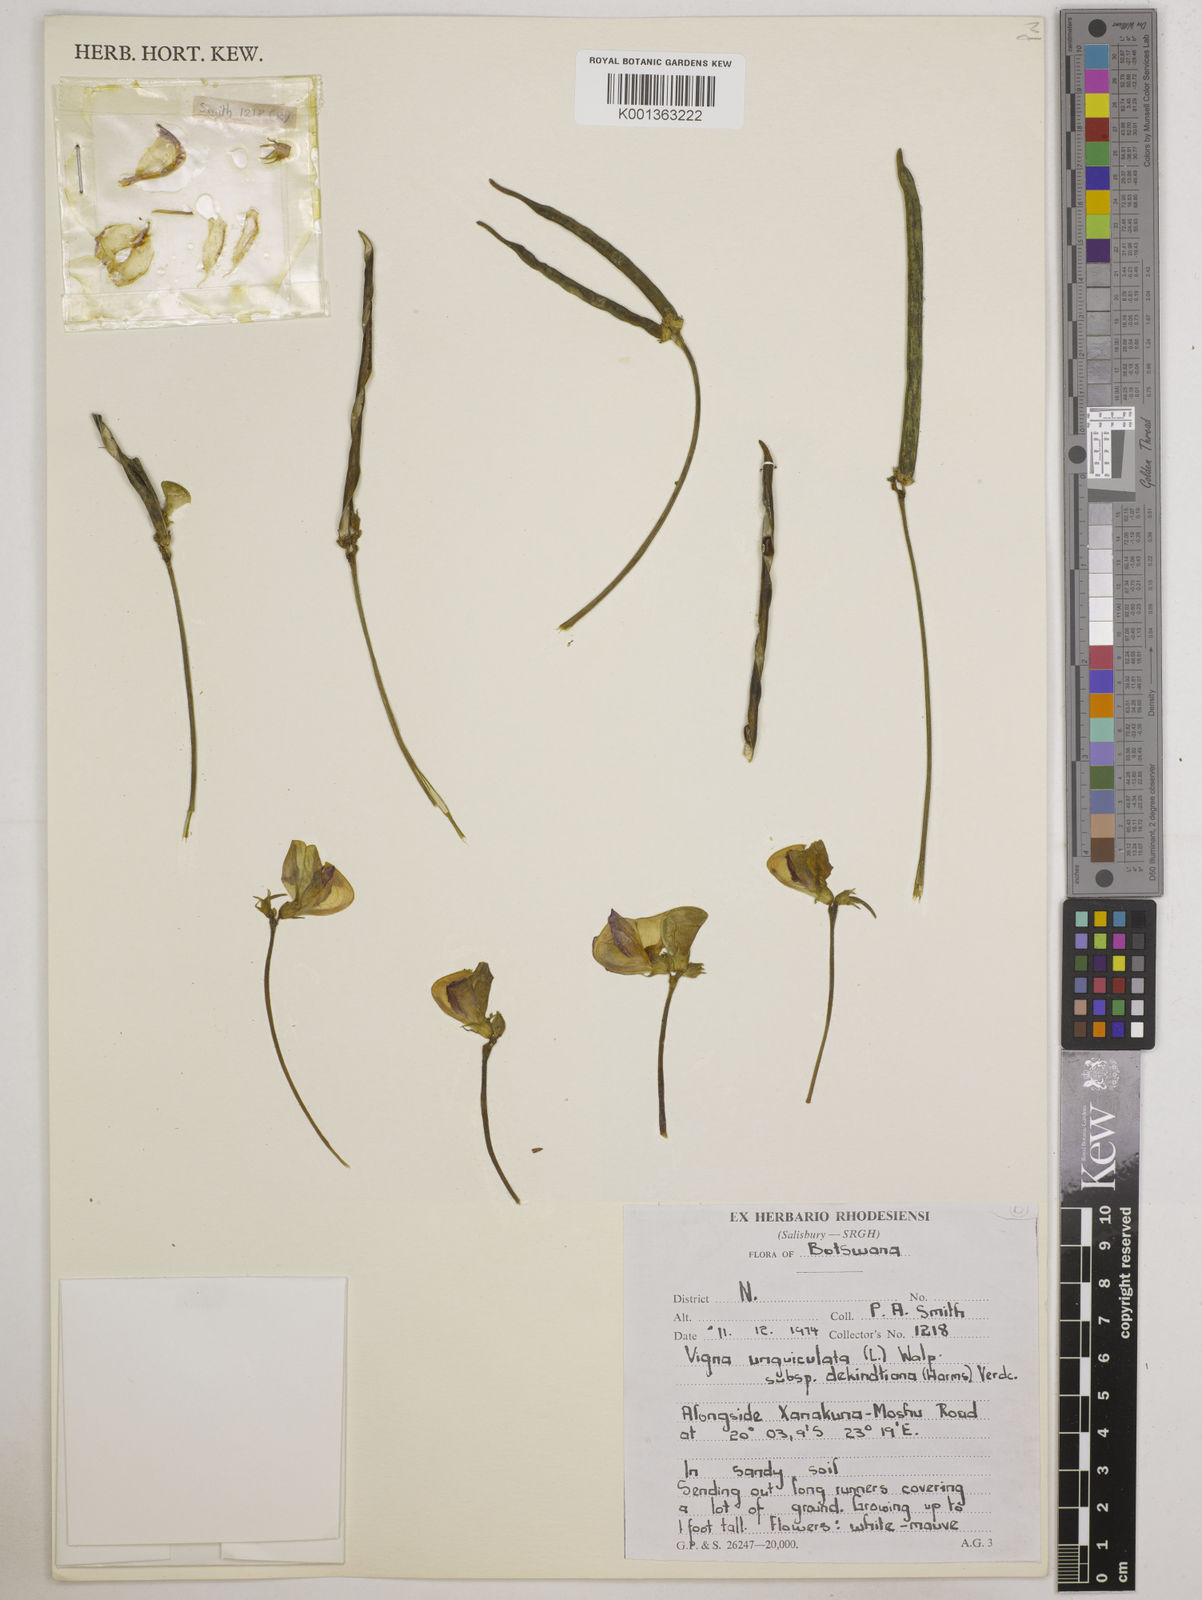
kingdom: Plantae
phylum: Tracheophyta
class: Magnoliopsida
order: Fabales
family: Fabaceae
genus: Vigna
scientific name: Vigna unguiculata
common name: Cowpea
